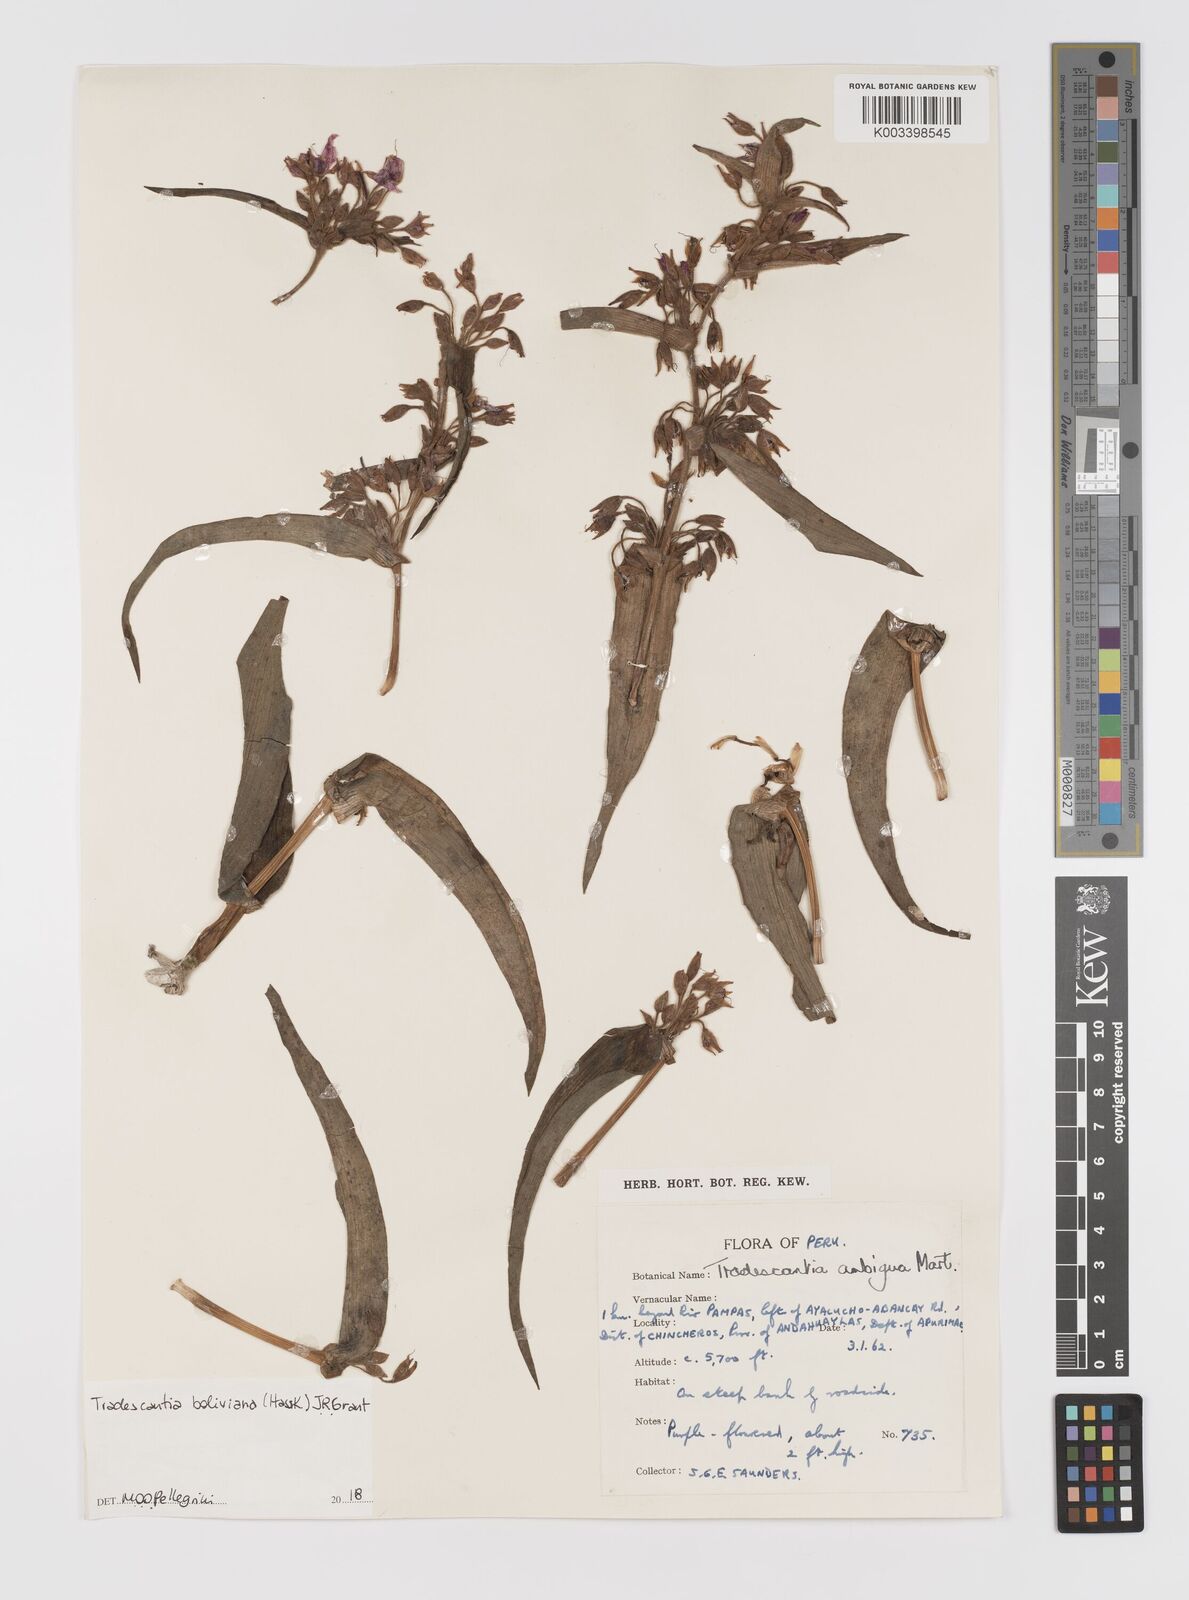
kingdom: Plantae
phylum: Tracheophyta
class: Liliopsida
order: Commelinales
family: Commelinaceae
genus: Tradescantia
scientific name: Tradescantia boliviana
